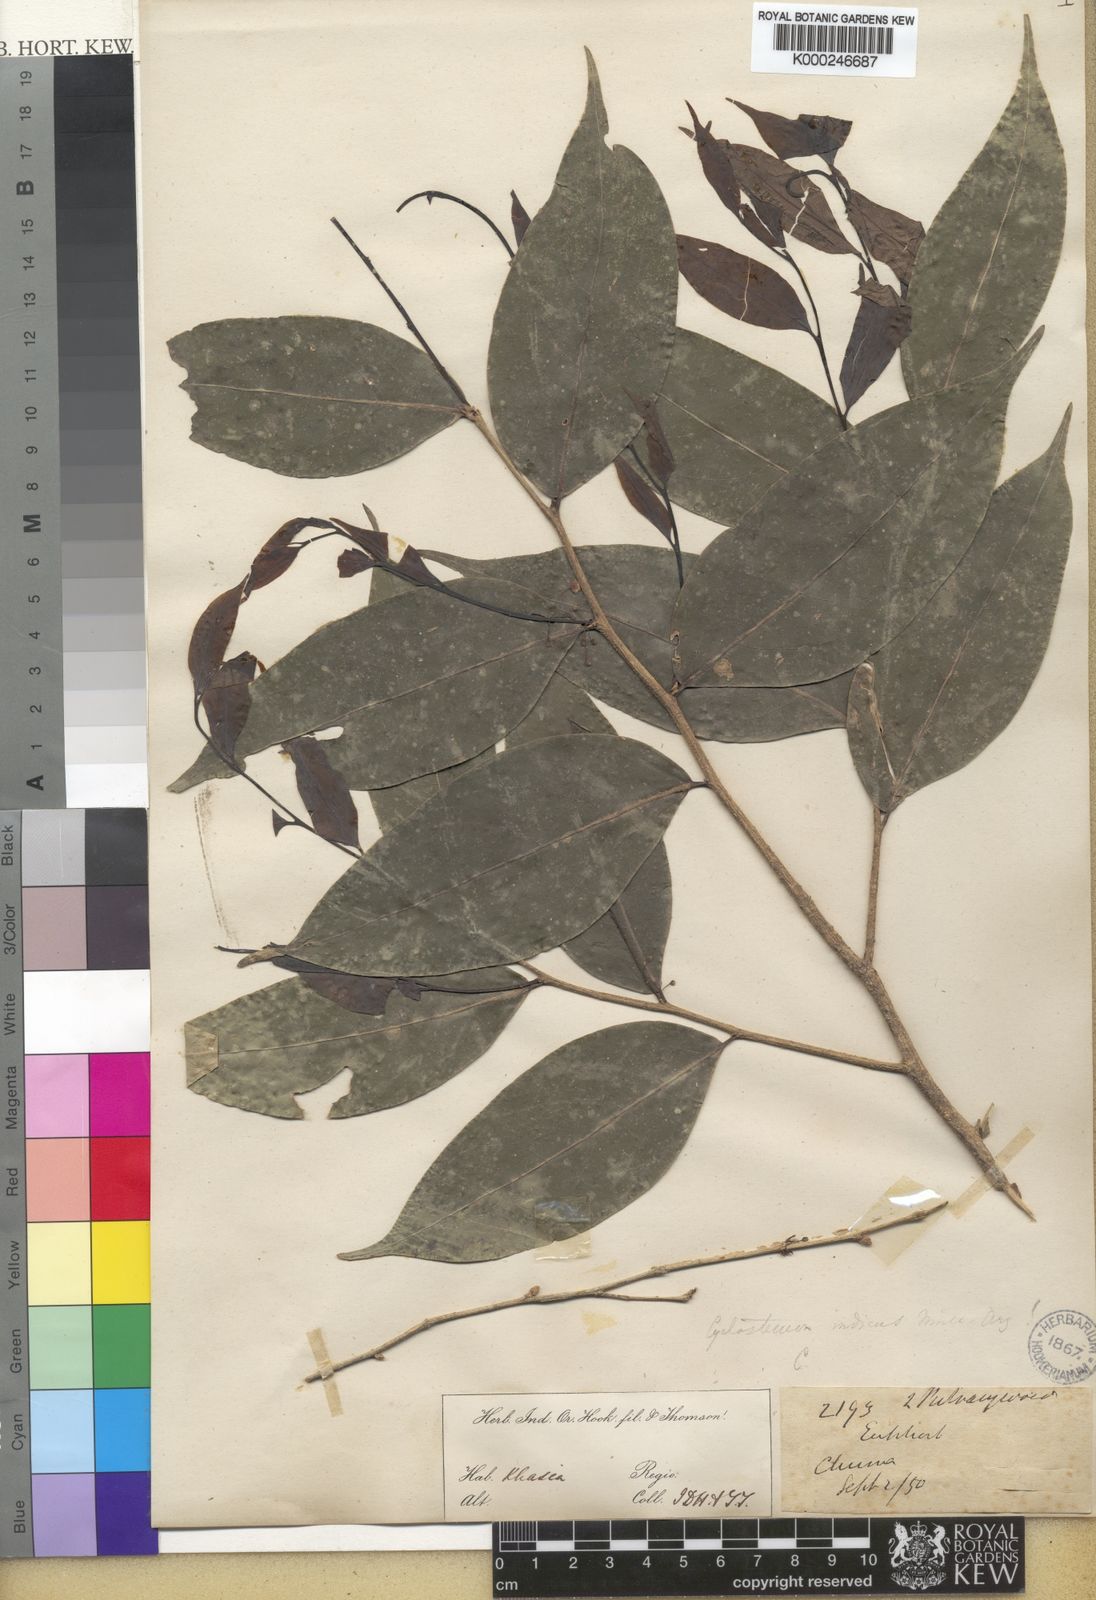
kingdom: Plantae
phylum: Tracheophyta
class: Magnoliopsida
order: Malpighiales
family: Putranjivaceae
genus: Drypetes
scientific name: Drypetes
